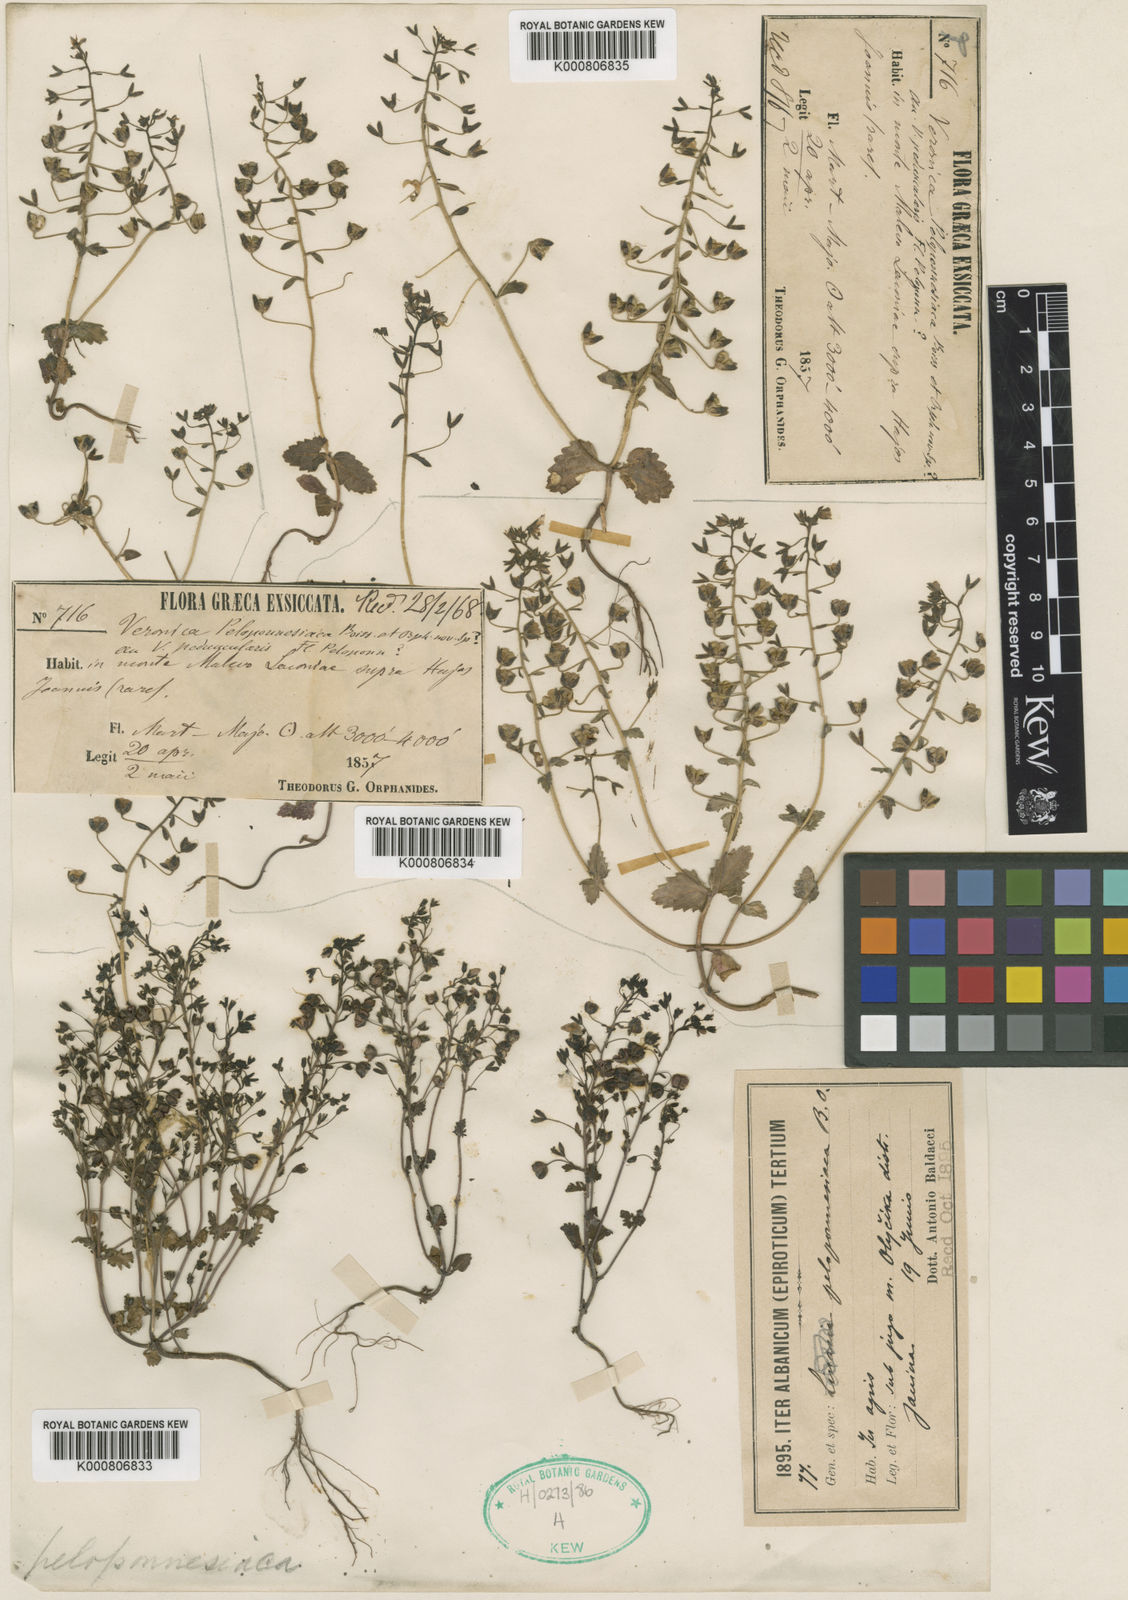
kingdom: Plantae
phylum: Tracheophyta
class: Magnoliopsida
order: Lamiales
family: Plantaginaceae
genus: Veronica
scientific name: Veronica glauca
